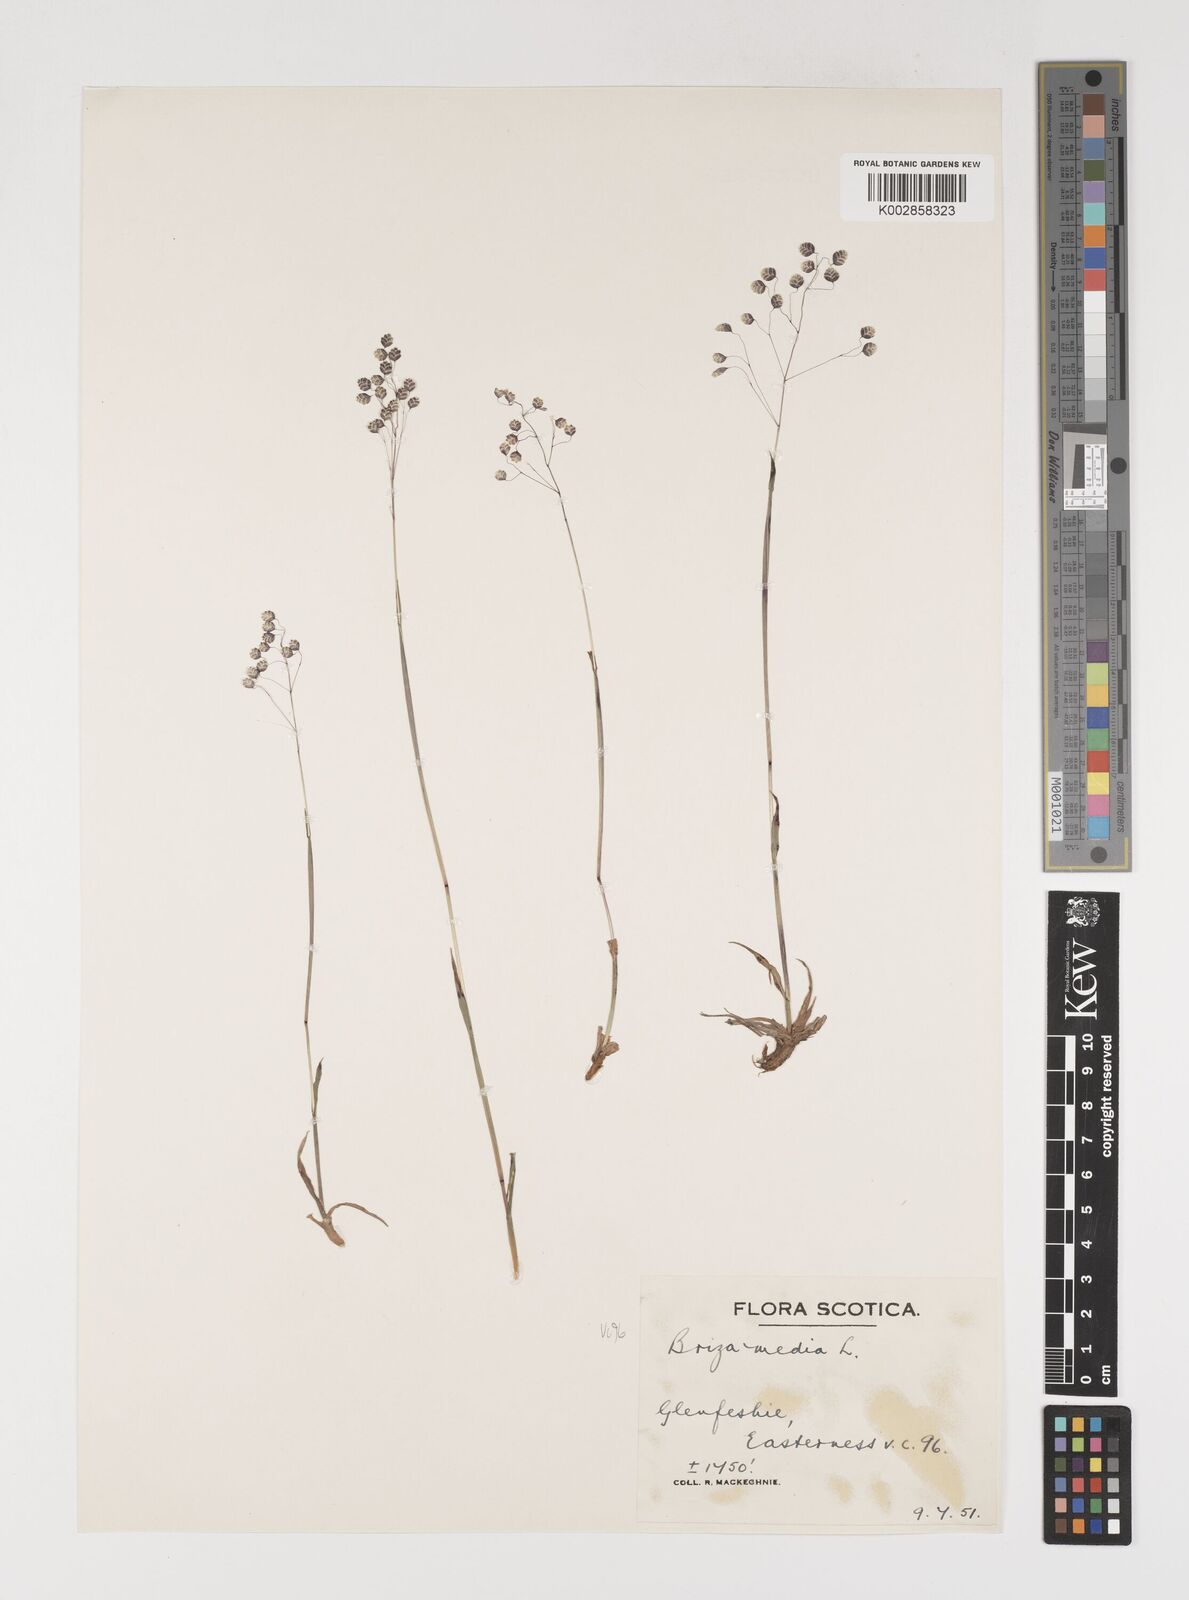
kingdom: Plantae
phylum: Tracheophyta
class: Liliopsida
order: Poales
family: Poaceae
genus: Briza
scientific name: Briza media
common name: Quaking grass
